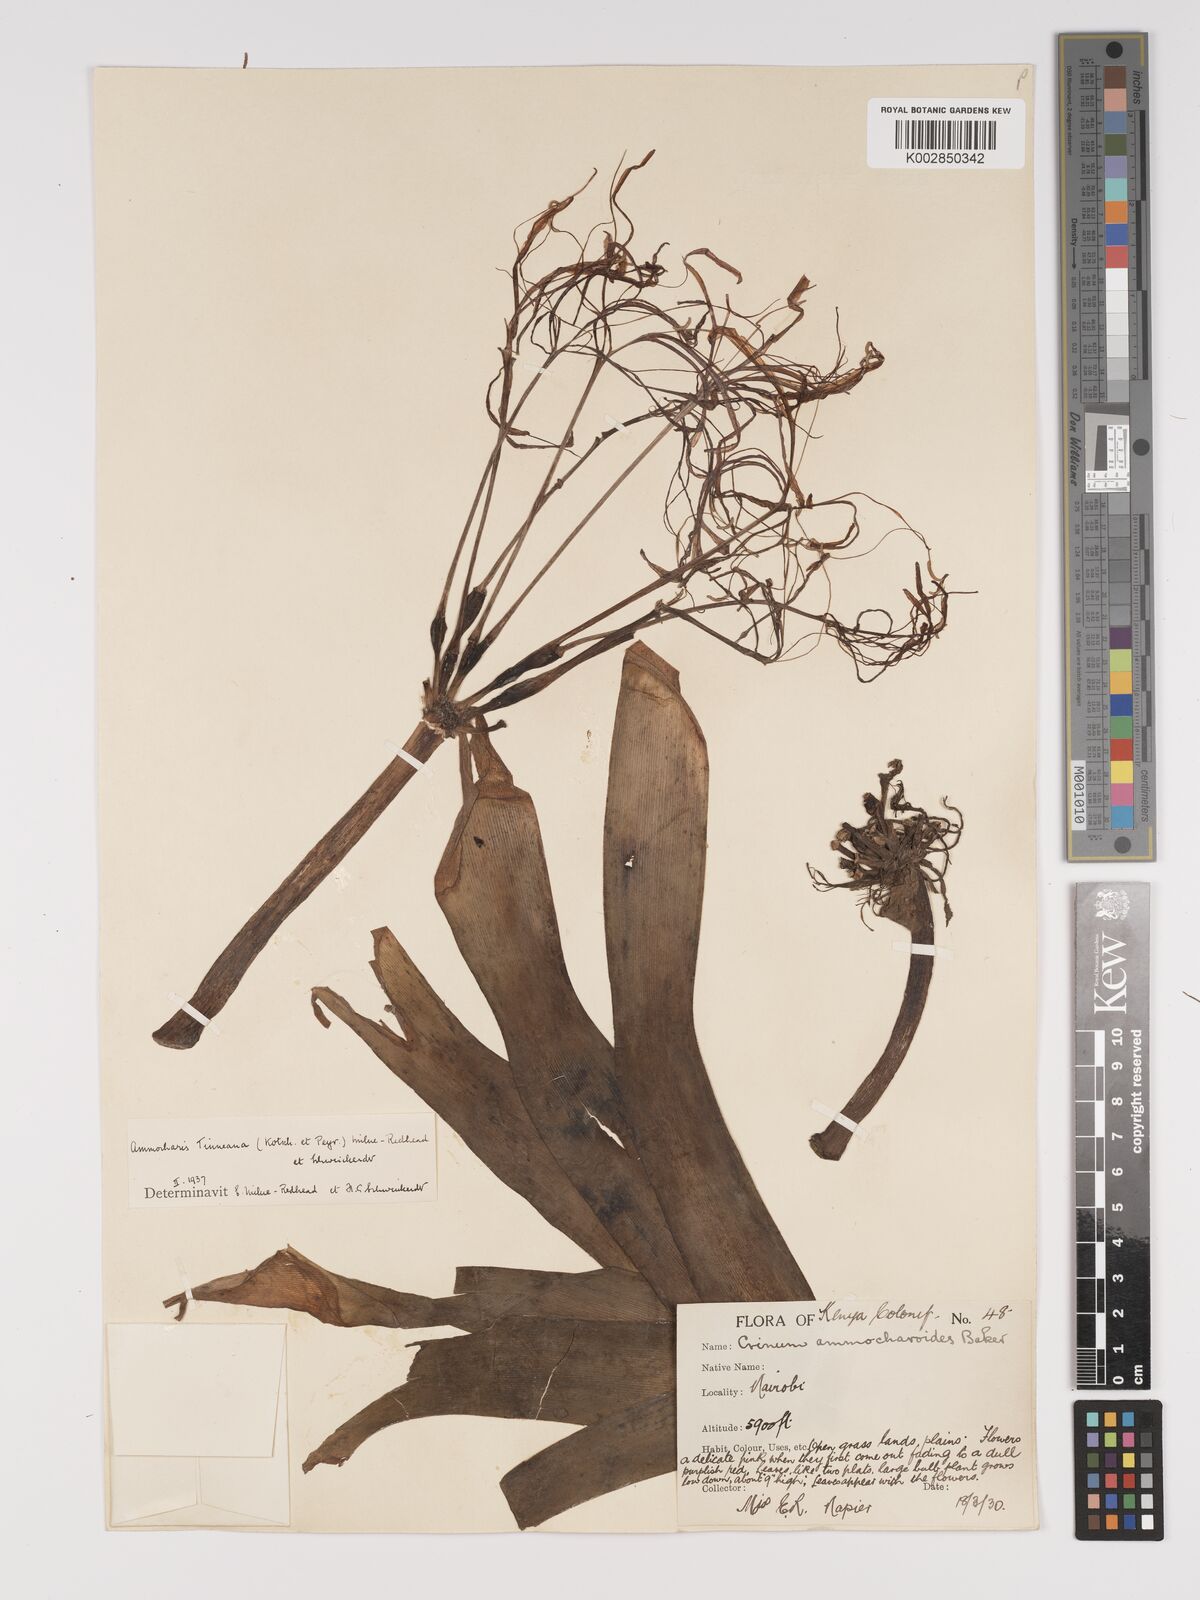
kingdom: Plantae
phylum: Tracheophyta
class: Liliopsida
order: Asparagales
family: Amaryllidaceae
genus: Ammocharis
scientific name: Ammocharis tinneana
